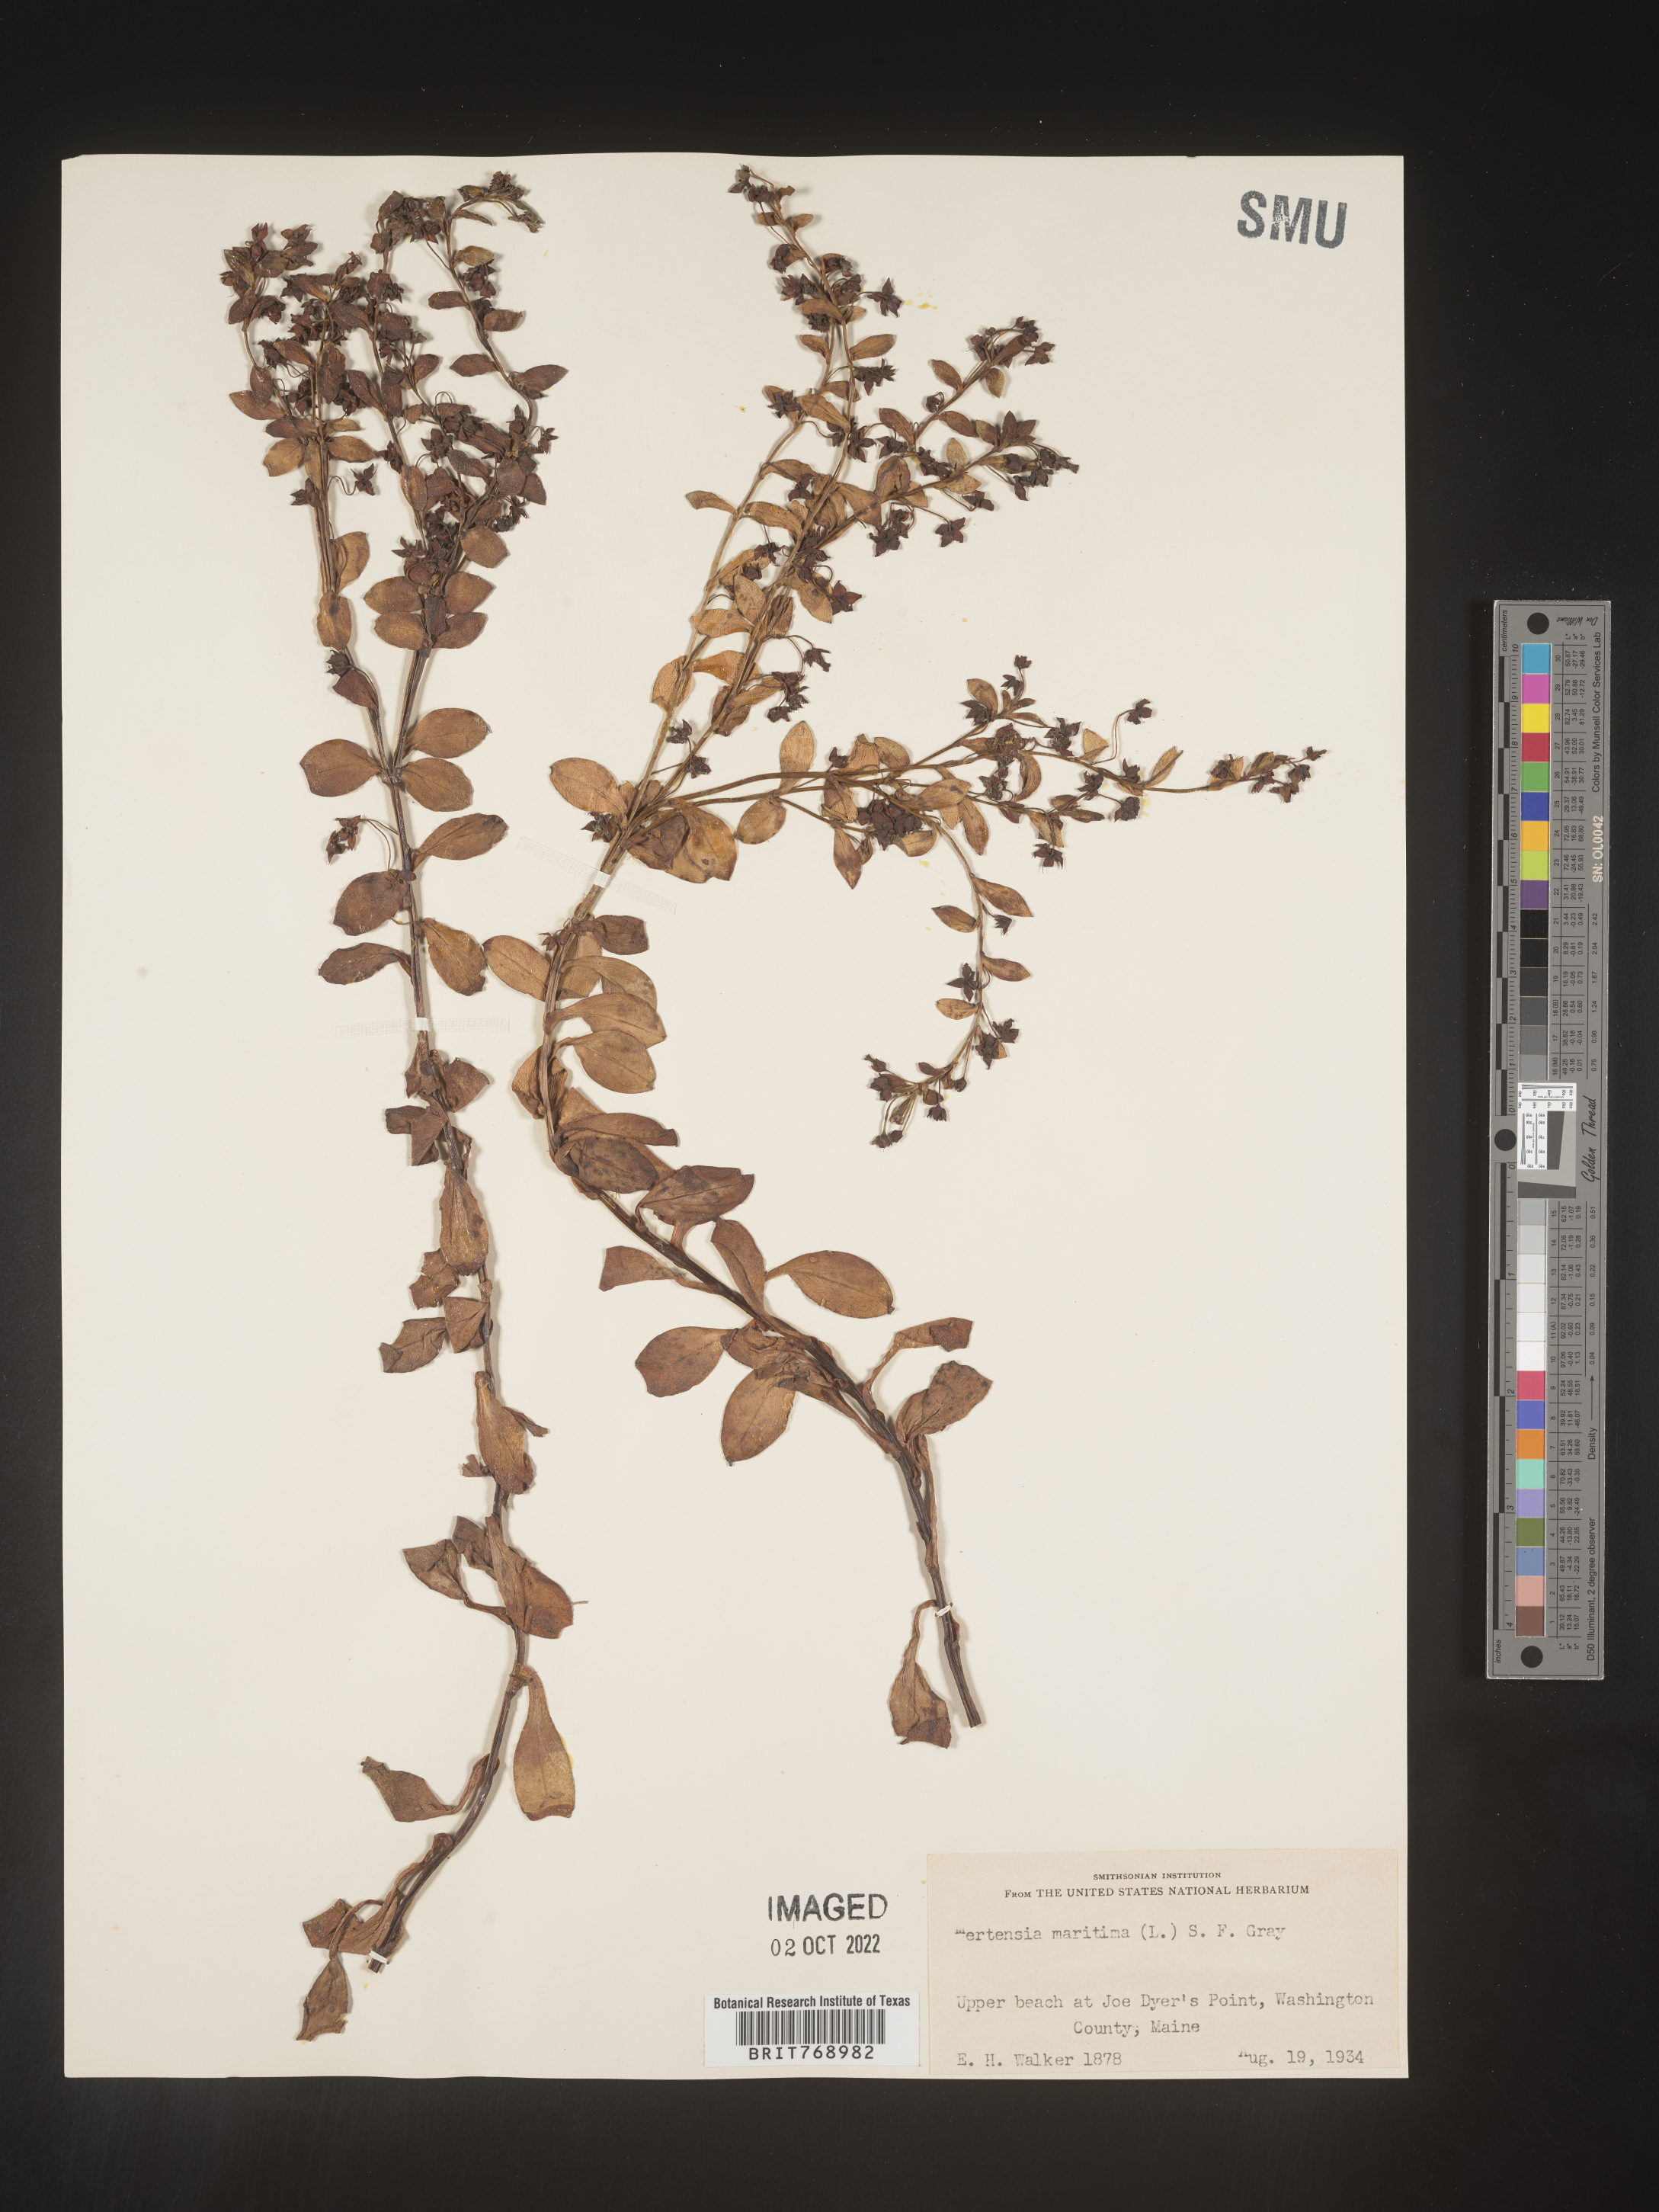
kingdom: Plantae
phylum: Tracheophyta
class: Magnoliopsida
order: Boraginales
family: Boraginaceae
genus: Mertensia
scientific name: Mertensia
